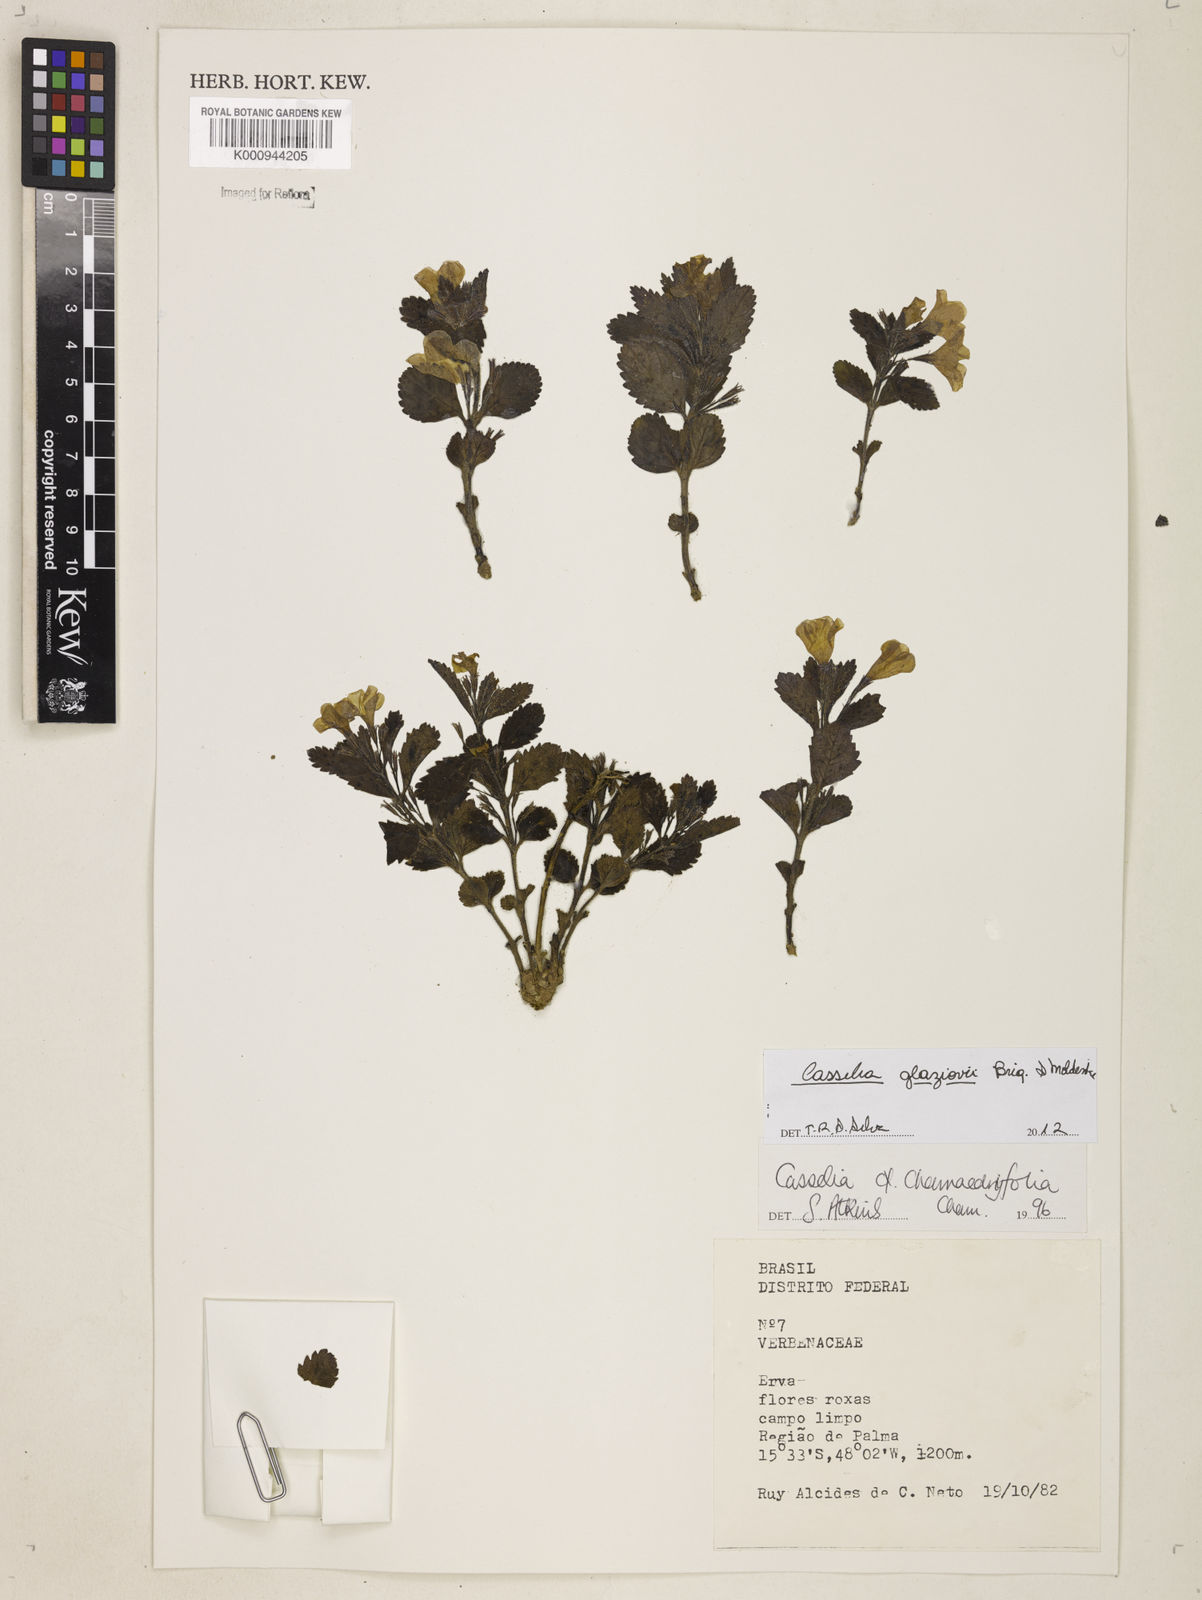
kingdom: Plantae
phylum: Tracheophyta
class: Magnoliopsida
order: Lamiales
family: Verbenaceae
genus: Casselia
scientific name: Casselia glaziovii
